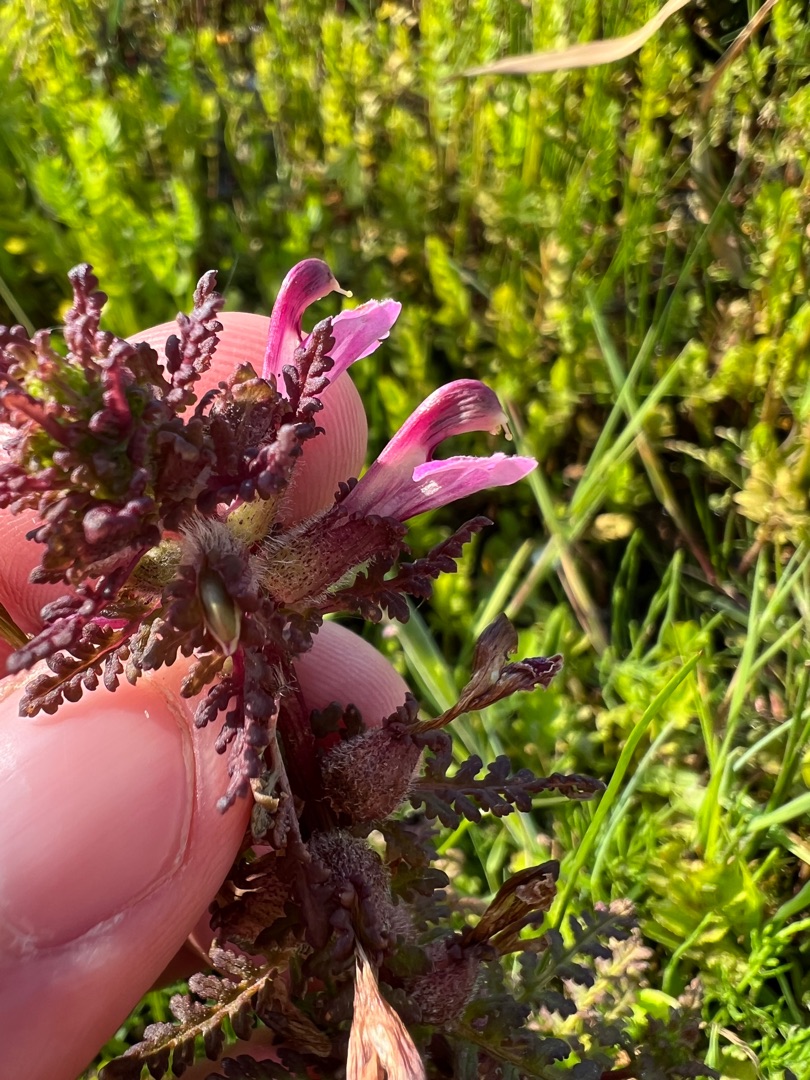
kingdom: Plantae
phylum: Tracheophyta
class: Magnoliopsida
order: Lamiales
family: Orobanchaceae
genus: Pedicularis
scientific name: Pedicularis palustris
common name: Eng-troldurt
